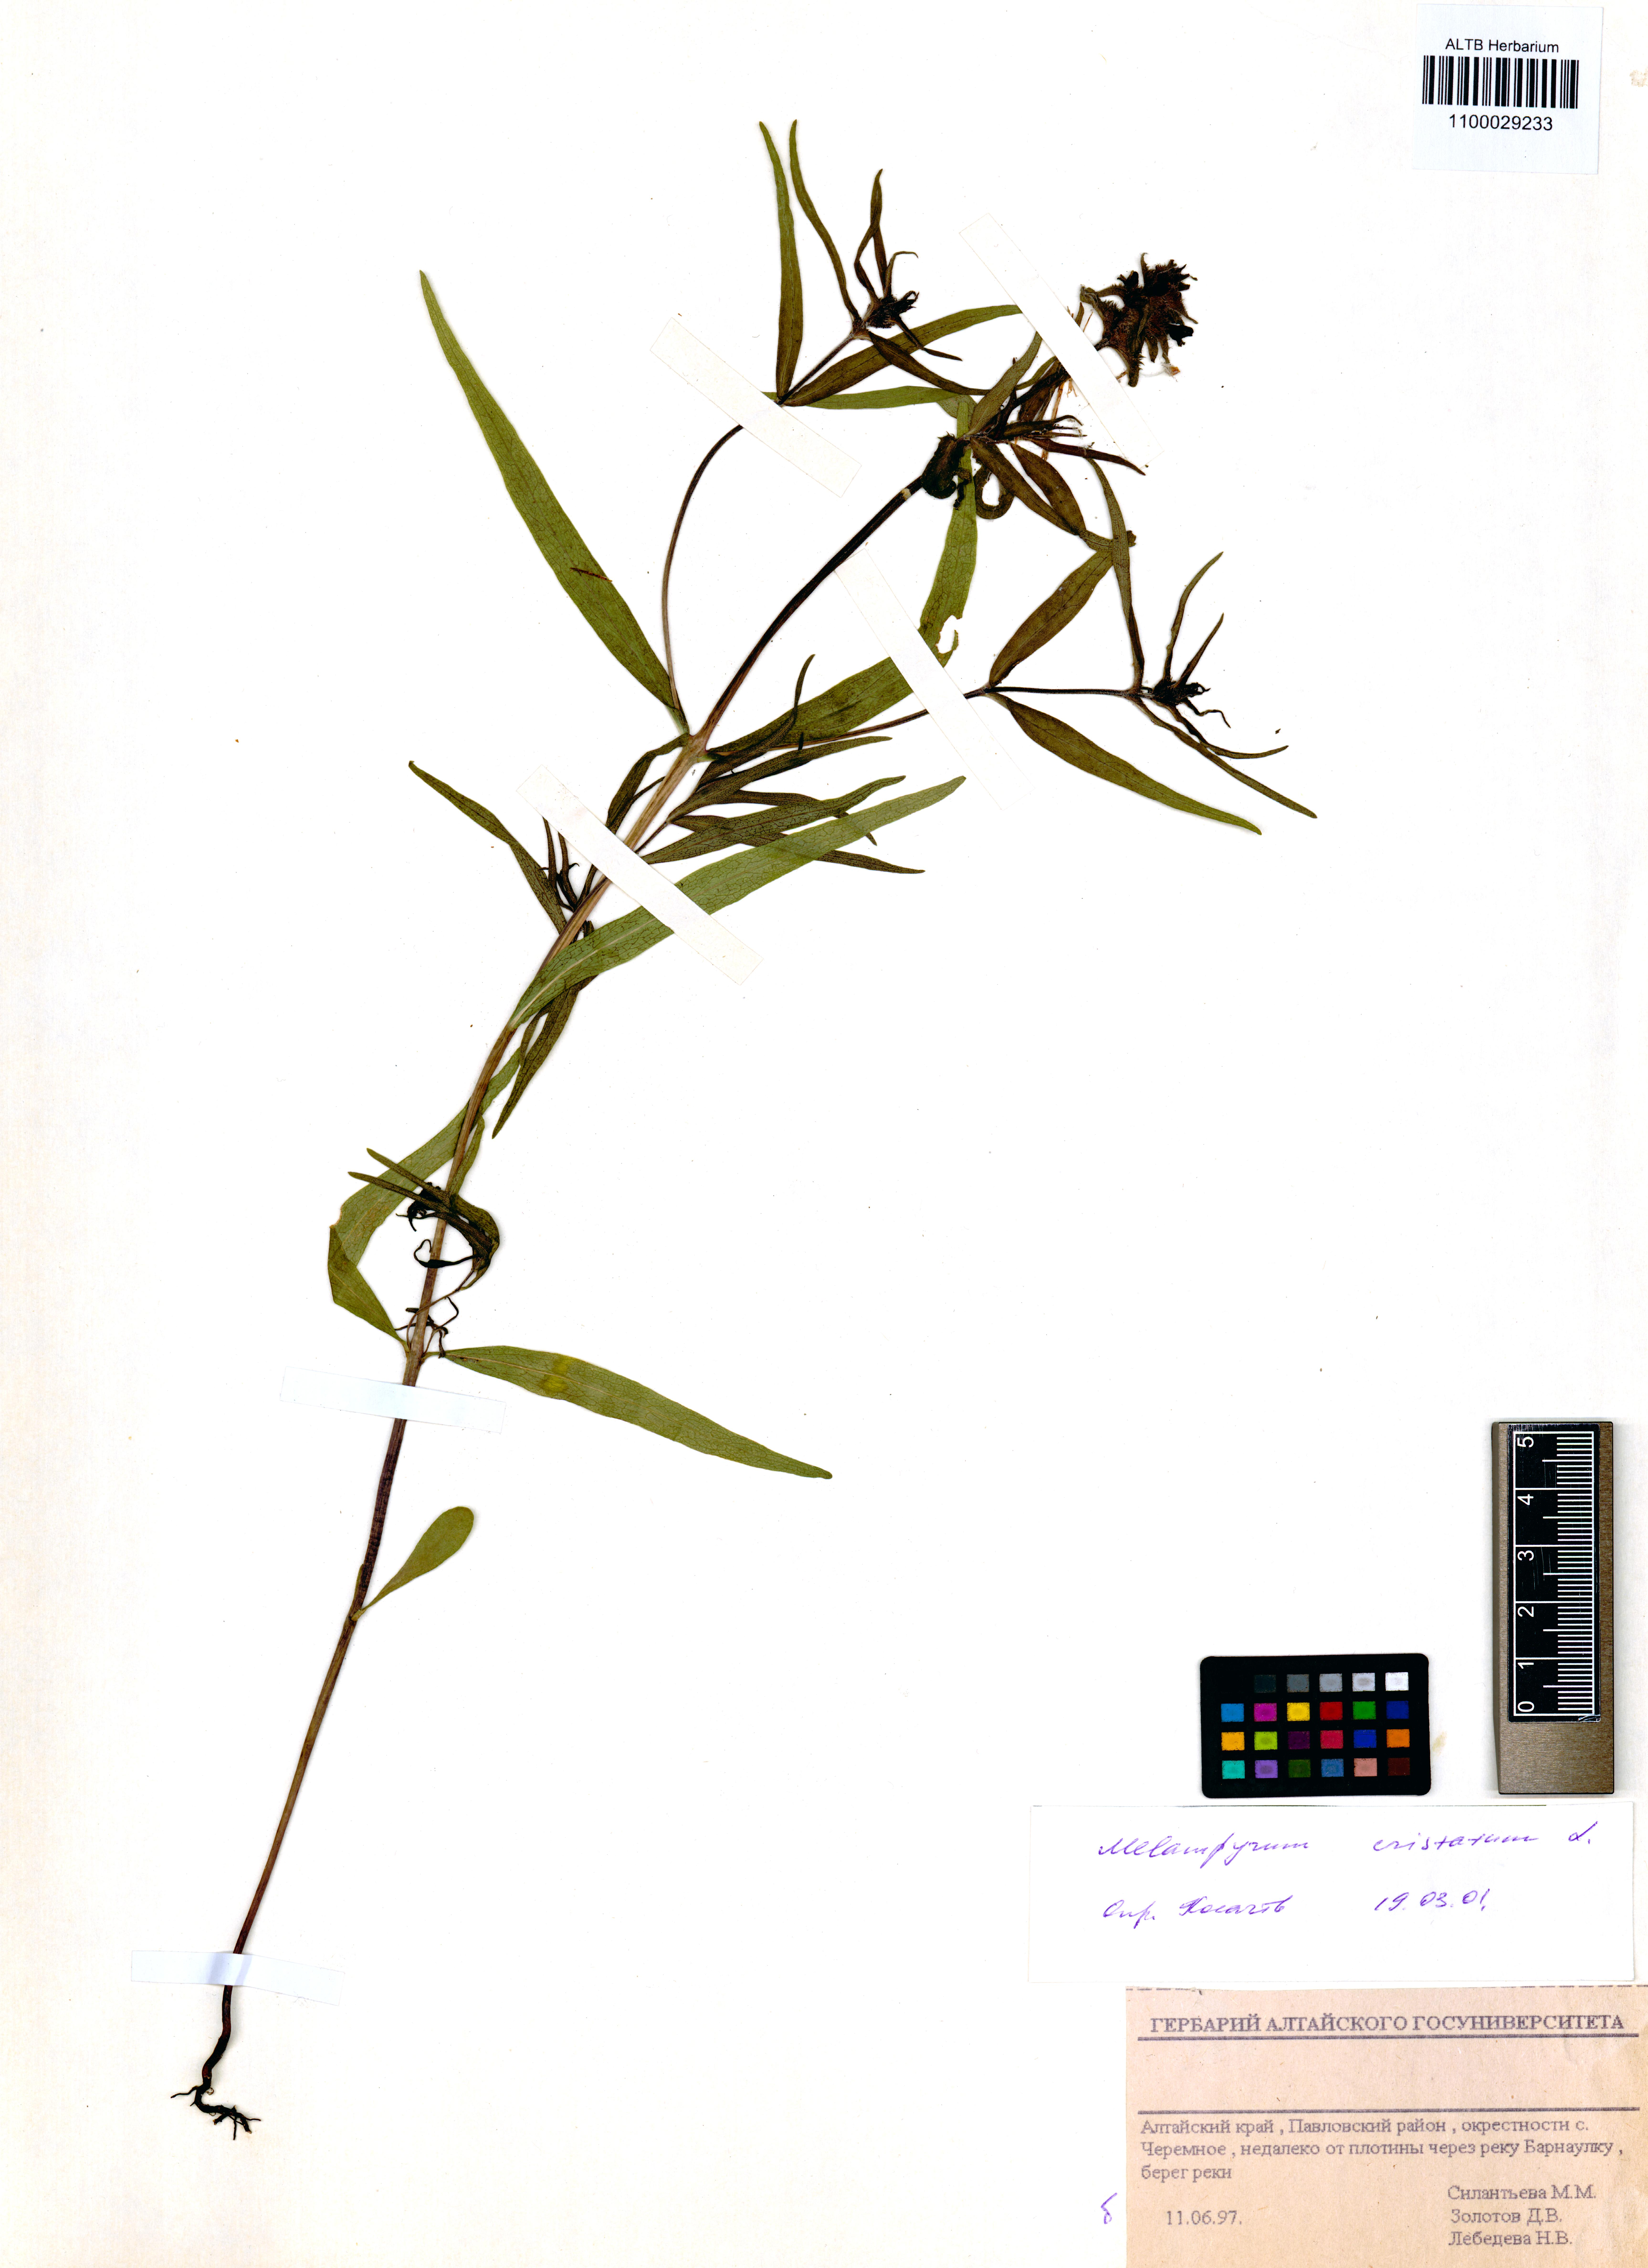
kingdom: Plantae
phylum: Tracheophyta
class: Magnoliopsida
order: Lamiales
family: Orobanchaceae
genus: Melampyrum
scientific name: Melampyrum cristatum
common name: Crested cow-wheat
